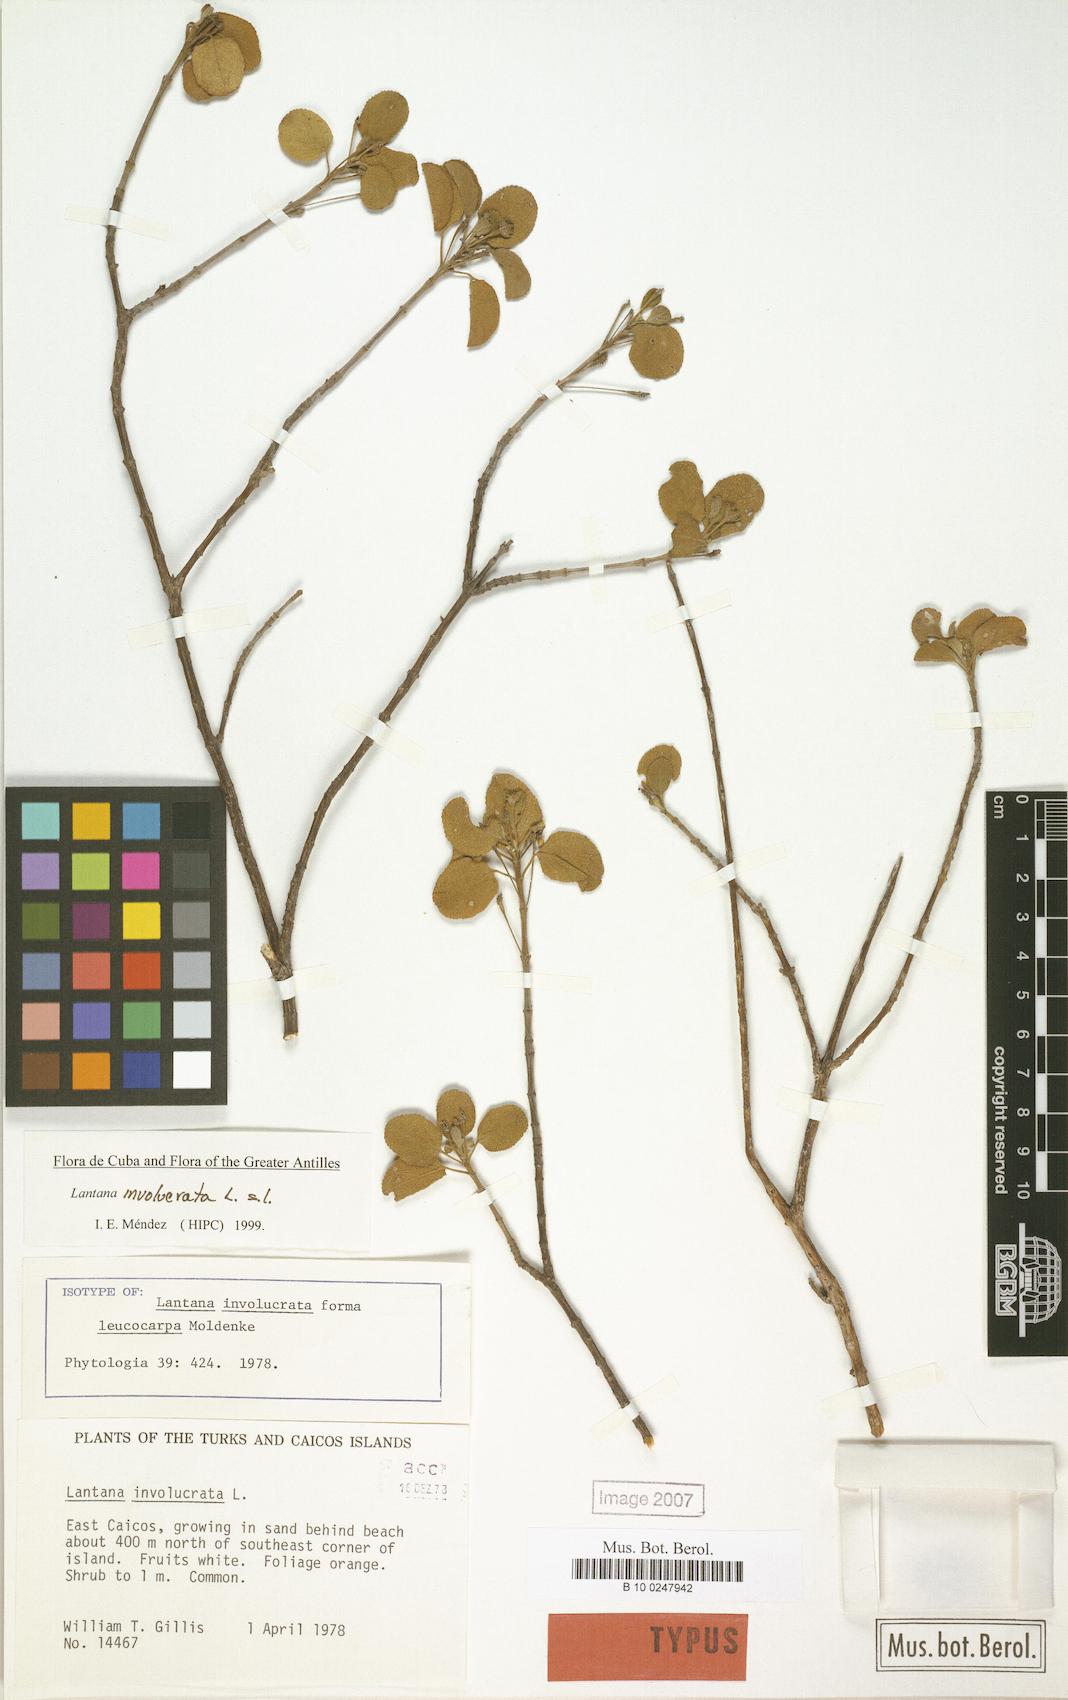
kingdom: Plantae
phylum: Tracheophyta
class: Magnoliopsida
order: Lamiales
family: Verbenaceae
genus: Lantana
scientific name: Lantana involucrata
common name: Black sage
